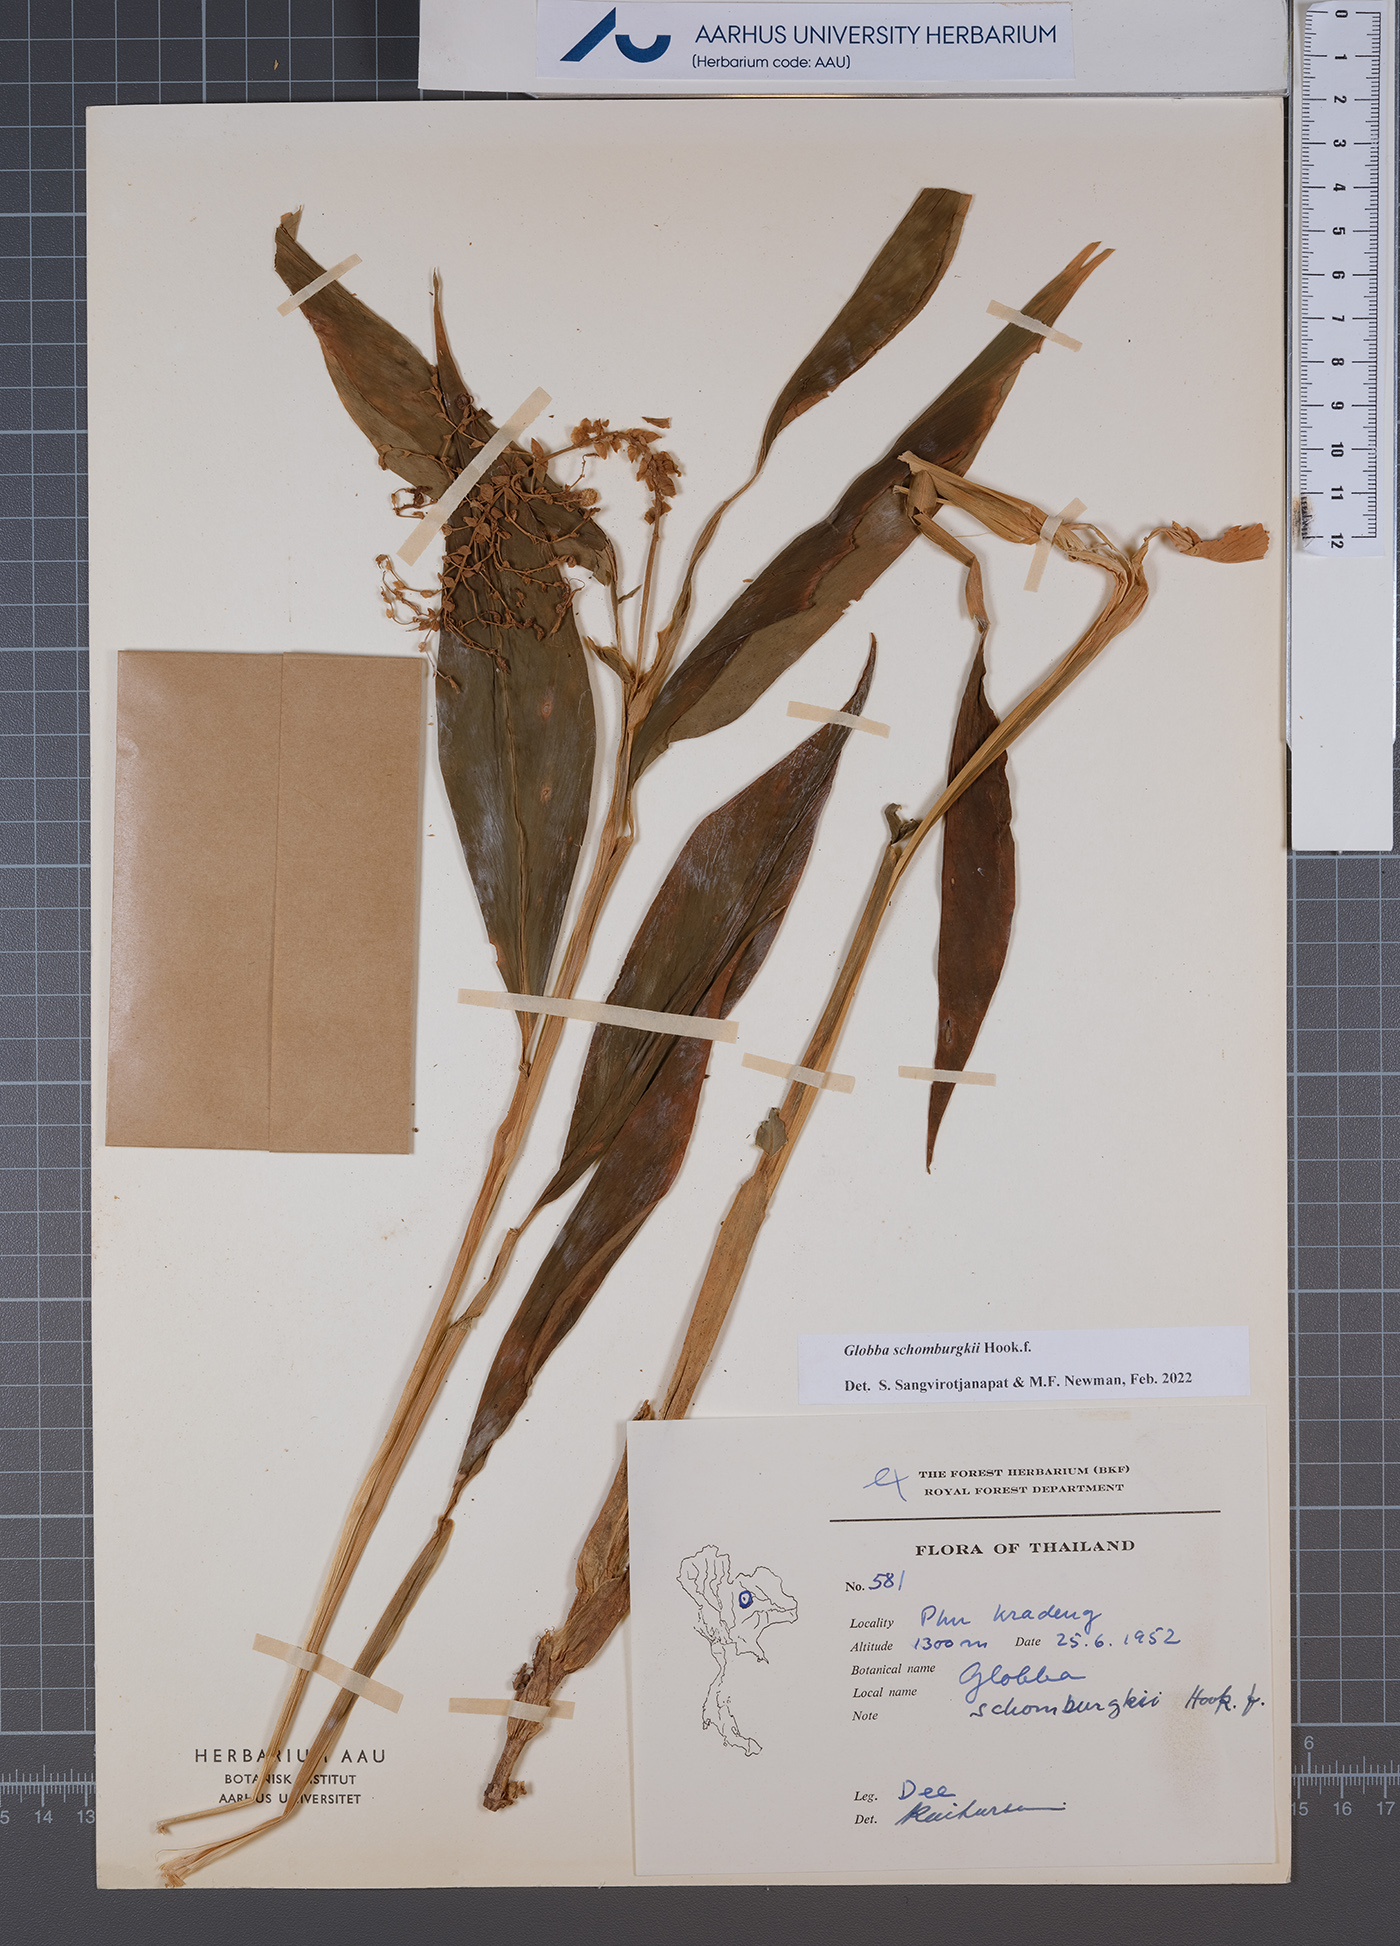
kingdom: Plantae
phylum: Tracheophyta
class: Liliopsida
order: Zingiberales
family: Zingiberaceae
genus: Globba
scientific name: Globba schomburgkii
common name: Dancing girl ginger
